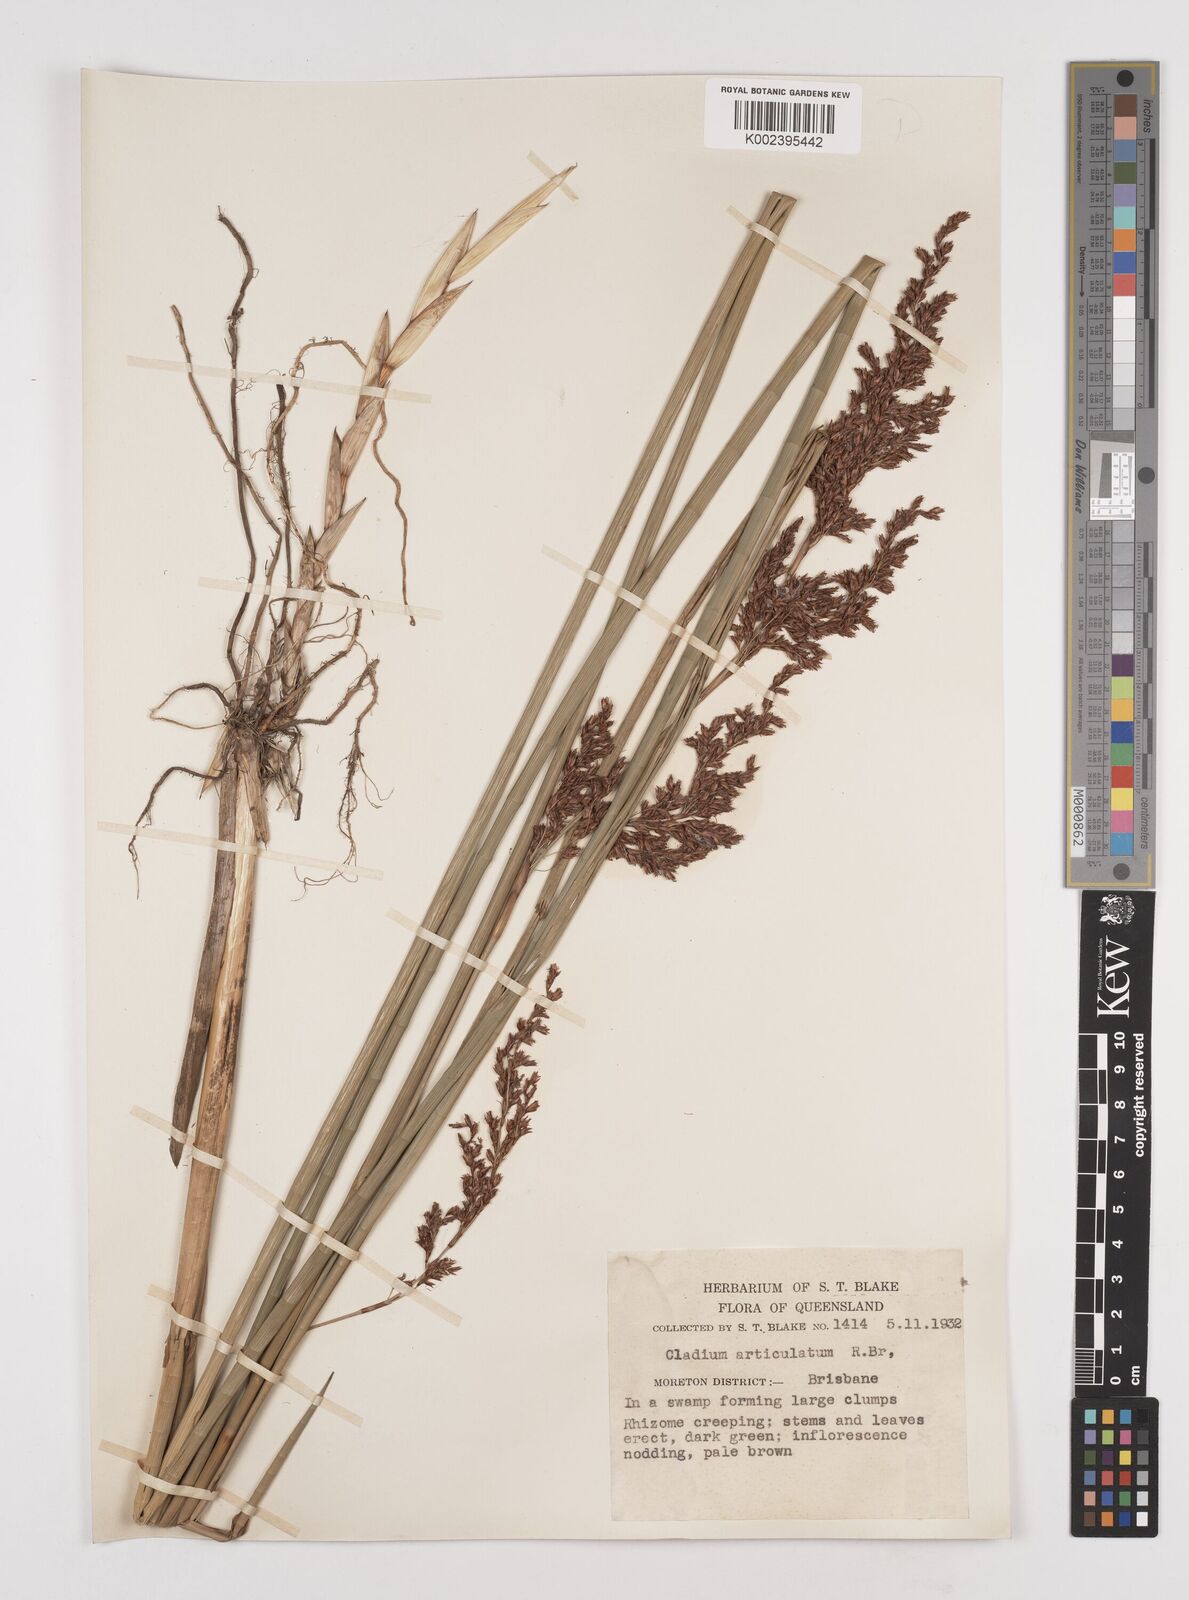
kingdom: Plantae
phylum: Tracheophyta
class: Liliopsida
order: Poales
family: Cyperaceae
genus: Machaerina
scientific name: Machaerina articulata
